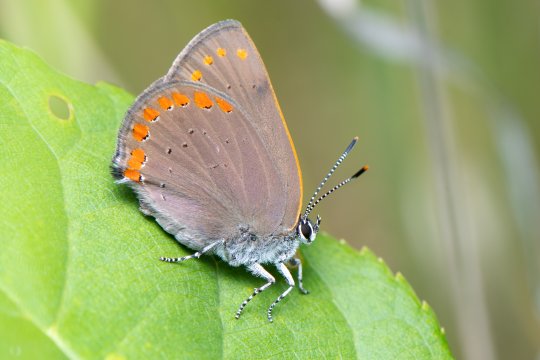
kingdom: Animalia
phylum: Arthropoda
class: Insecta
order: Lepidoptera
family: Lycaenidae
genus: Harkenclenus
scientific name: Harkenclenus titus
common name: Coral Hairstreak
